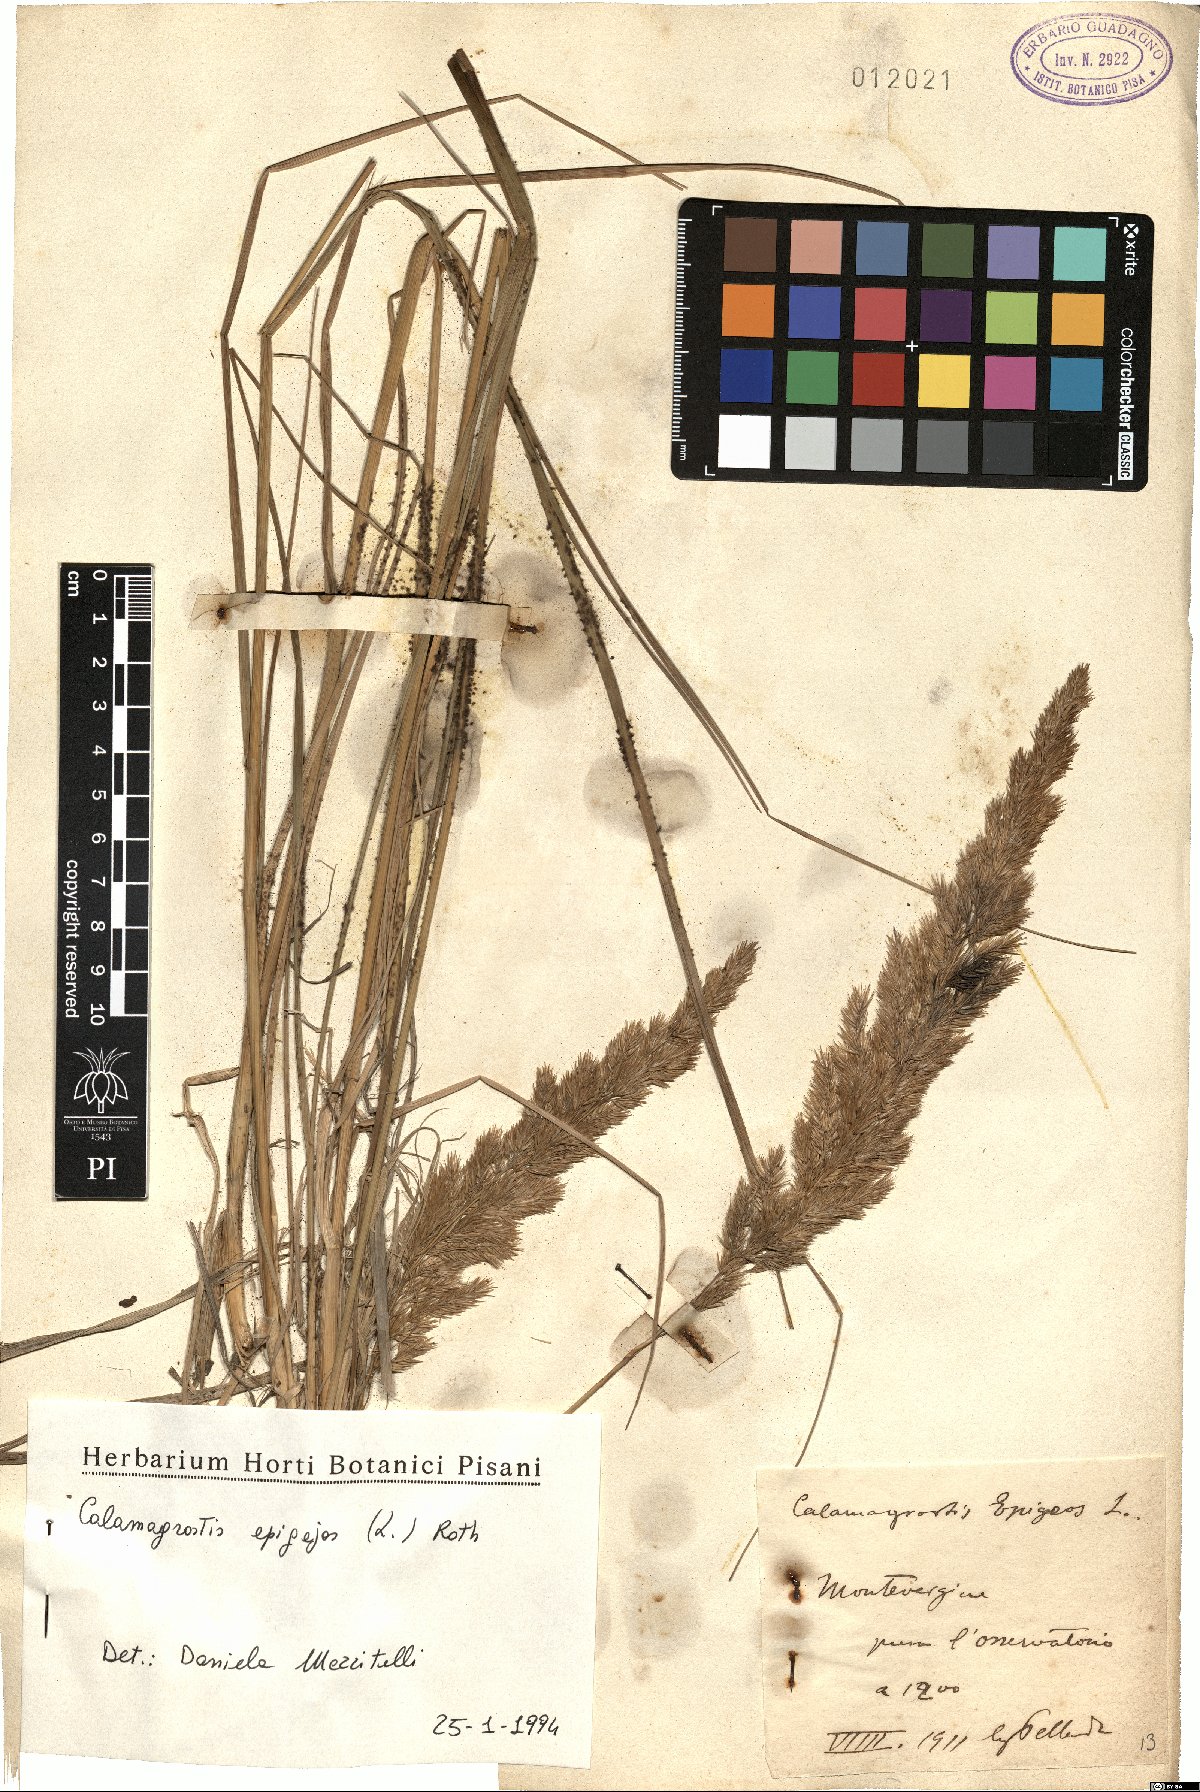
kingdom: Plantae
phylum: Tracheophyta
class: Liliopsida
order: Poales
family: Poaceae
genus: Calamagrostis
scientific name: Calamagrostis epigejos
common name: Wood small-reed
